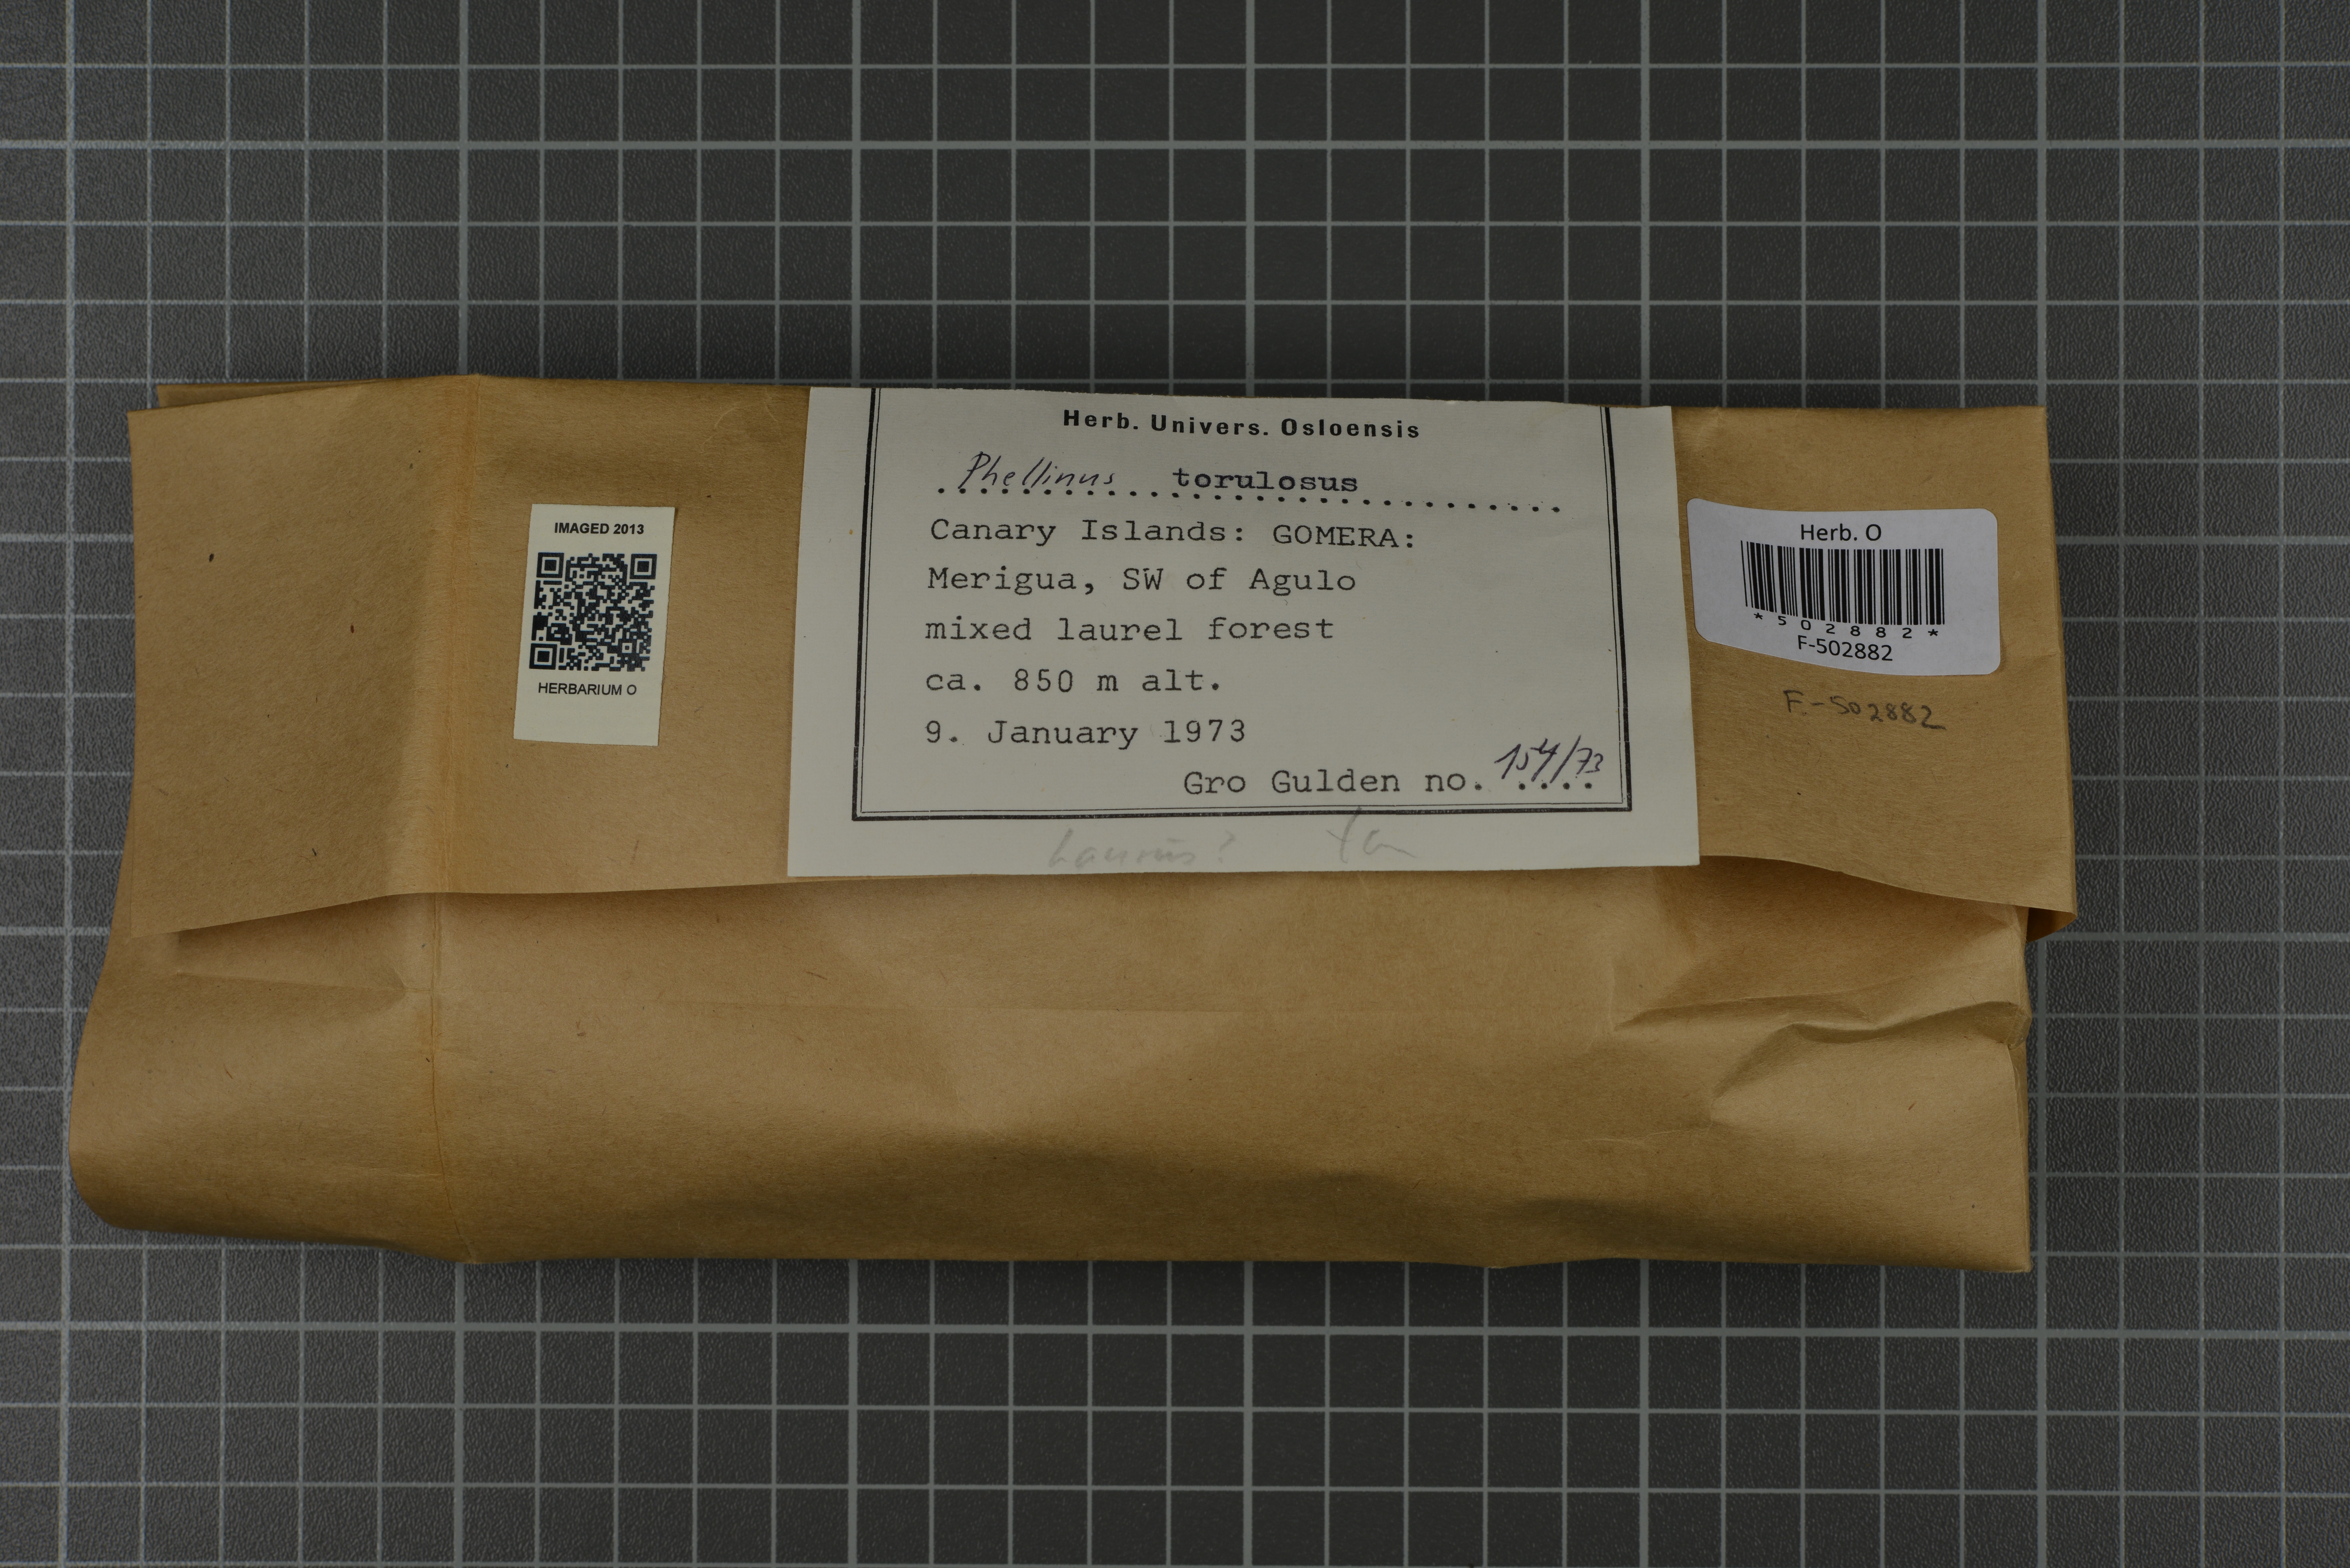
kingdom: Fungi
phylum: Basidiomycota
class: Agaricomycetes
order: Hymenochaetales
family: Hymenochaetaceae
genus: Fuscoporia
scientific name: Fuscoporia torulosa
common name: Tufted bracket
